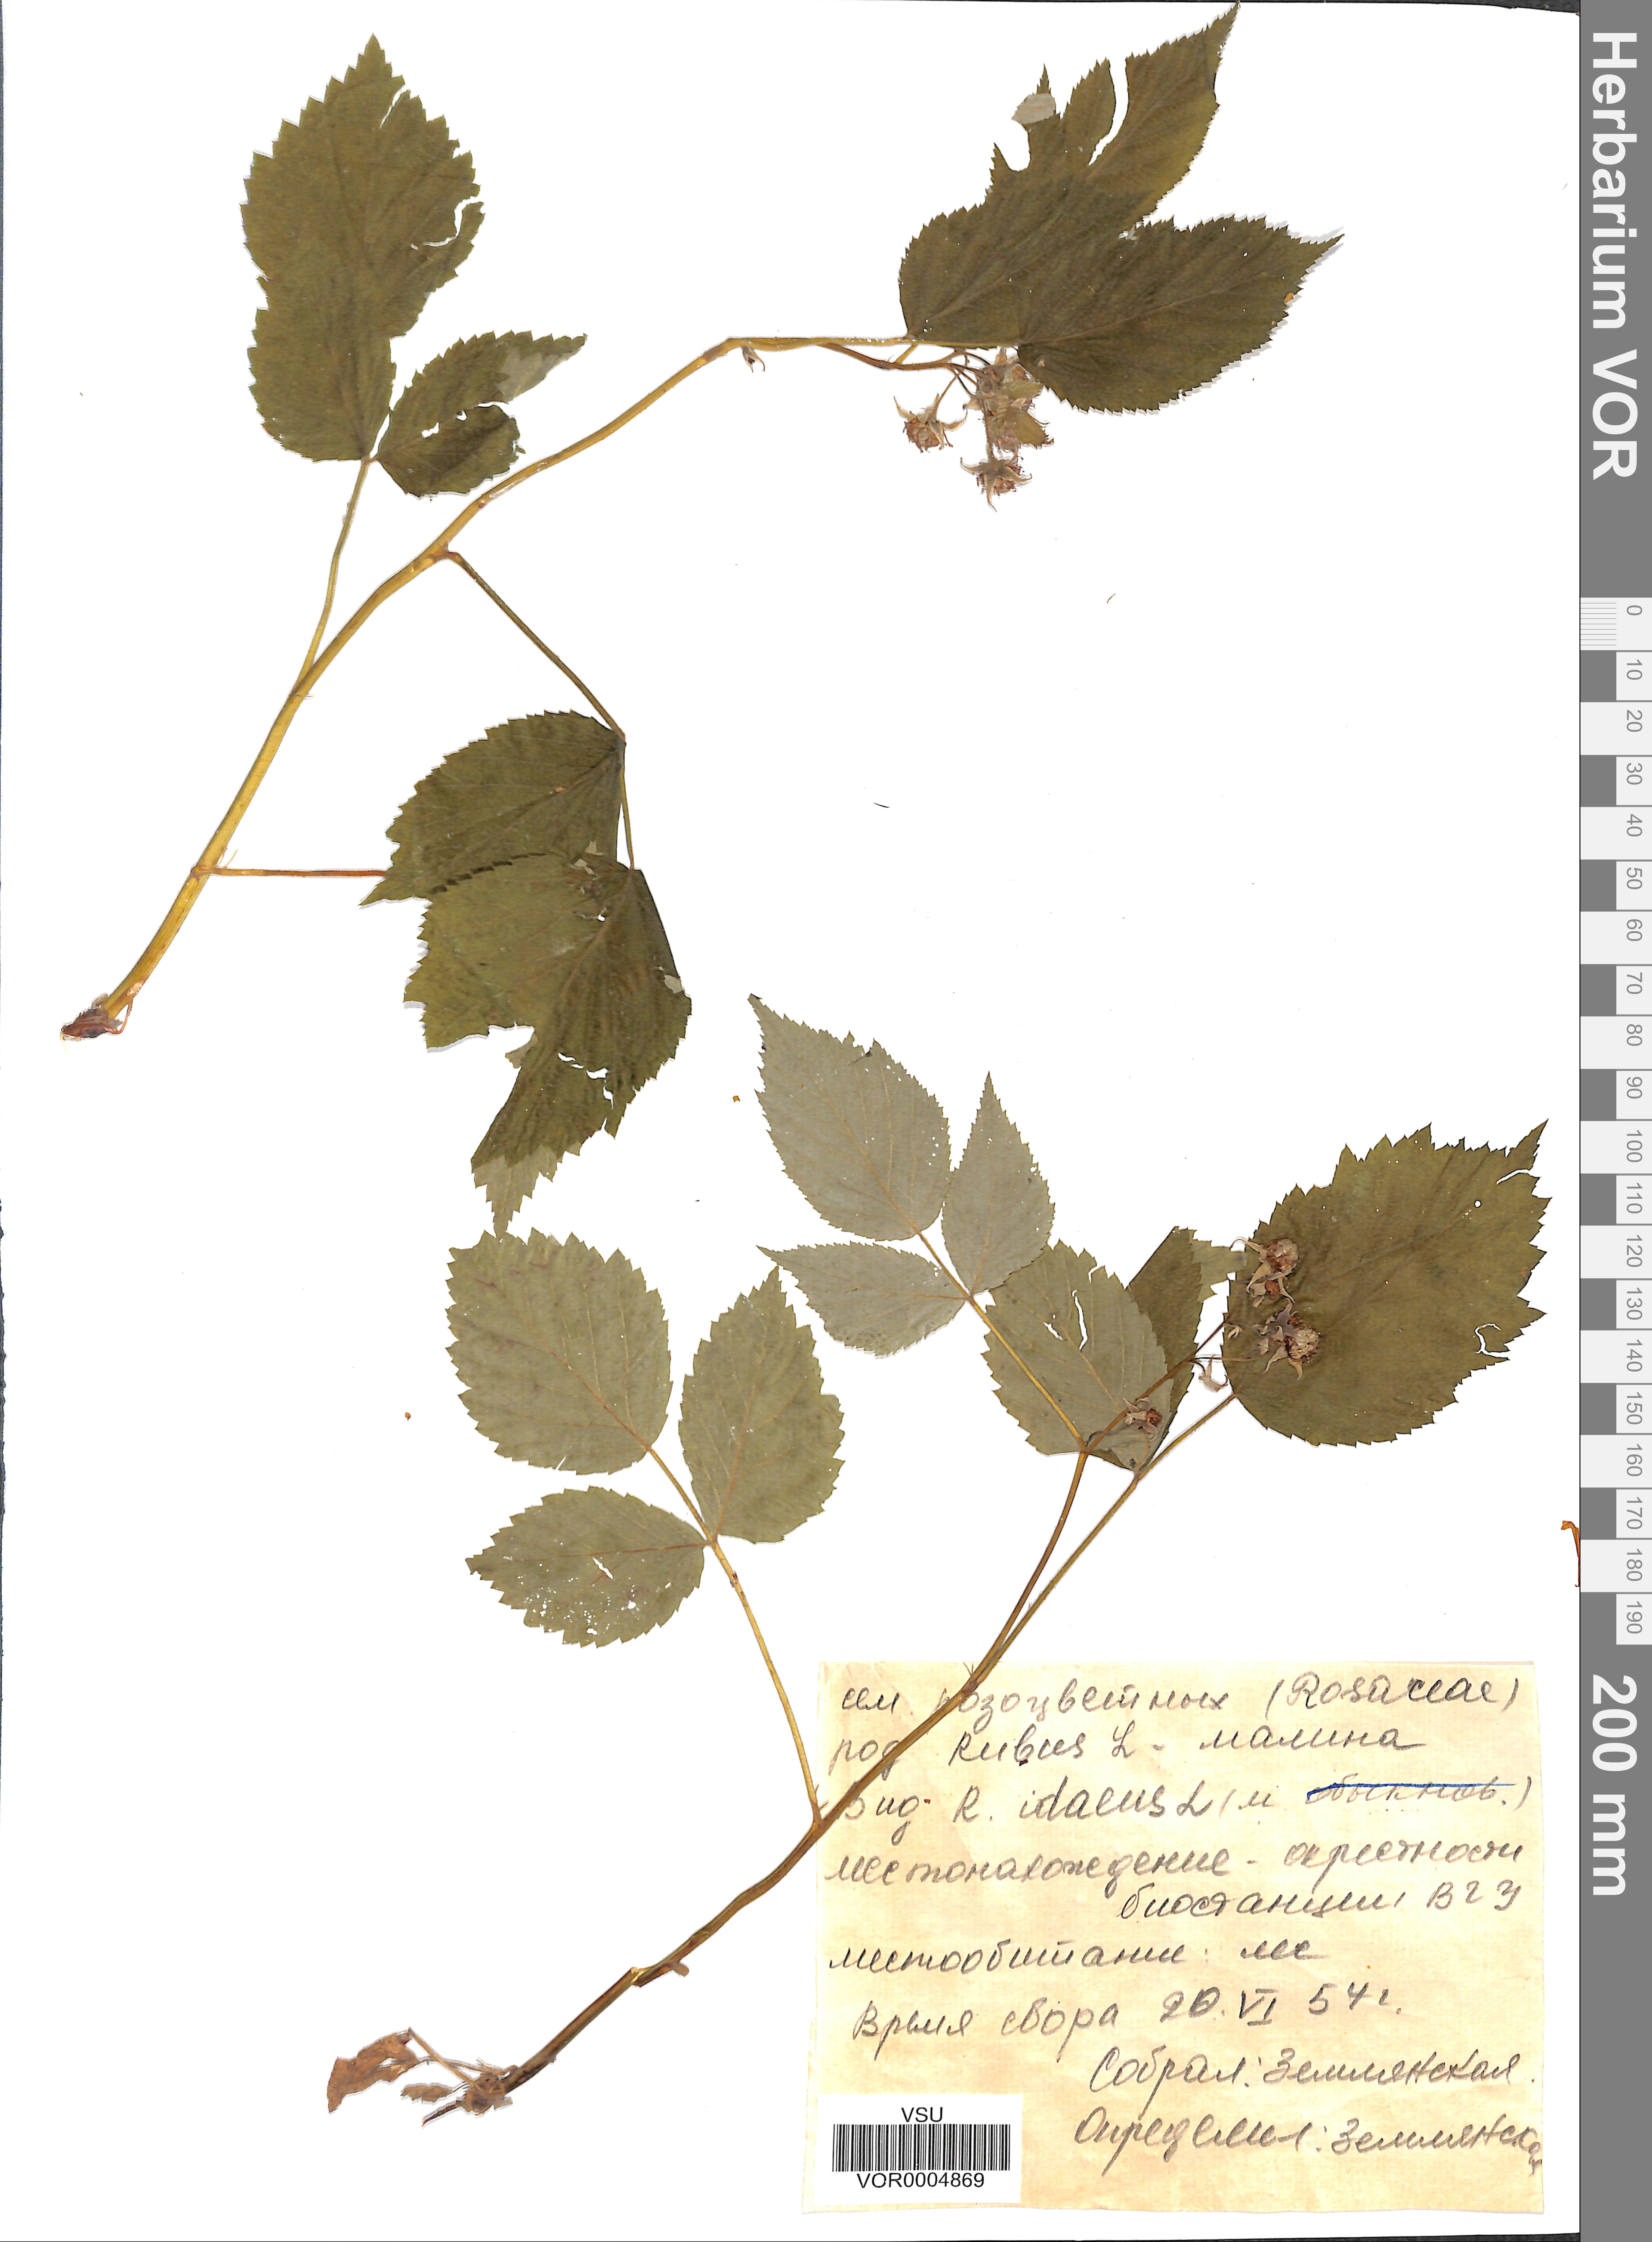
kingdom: Plantae
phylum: Tracheophyta
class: Magnoliopsida
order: Rosales
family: Rosaceae
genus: Rubus
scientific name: Rubus idaeus
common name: Raspberry
